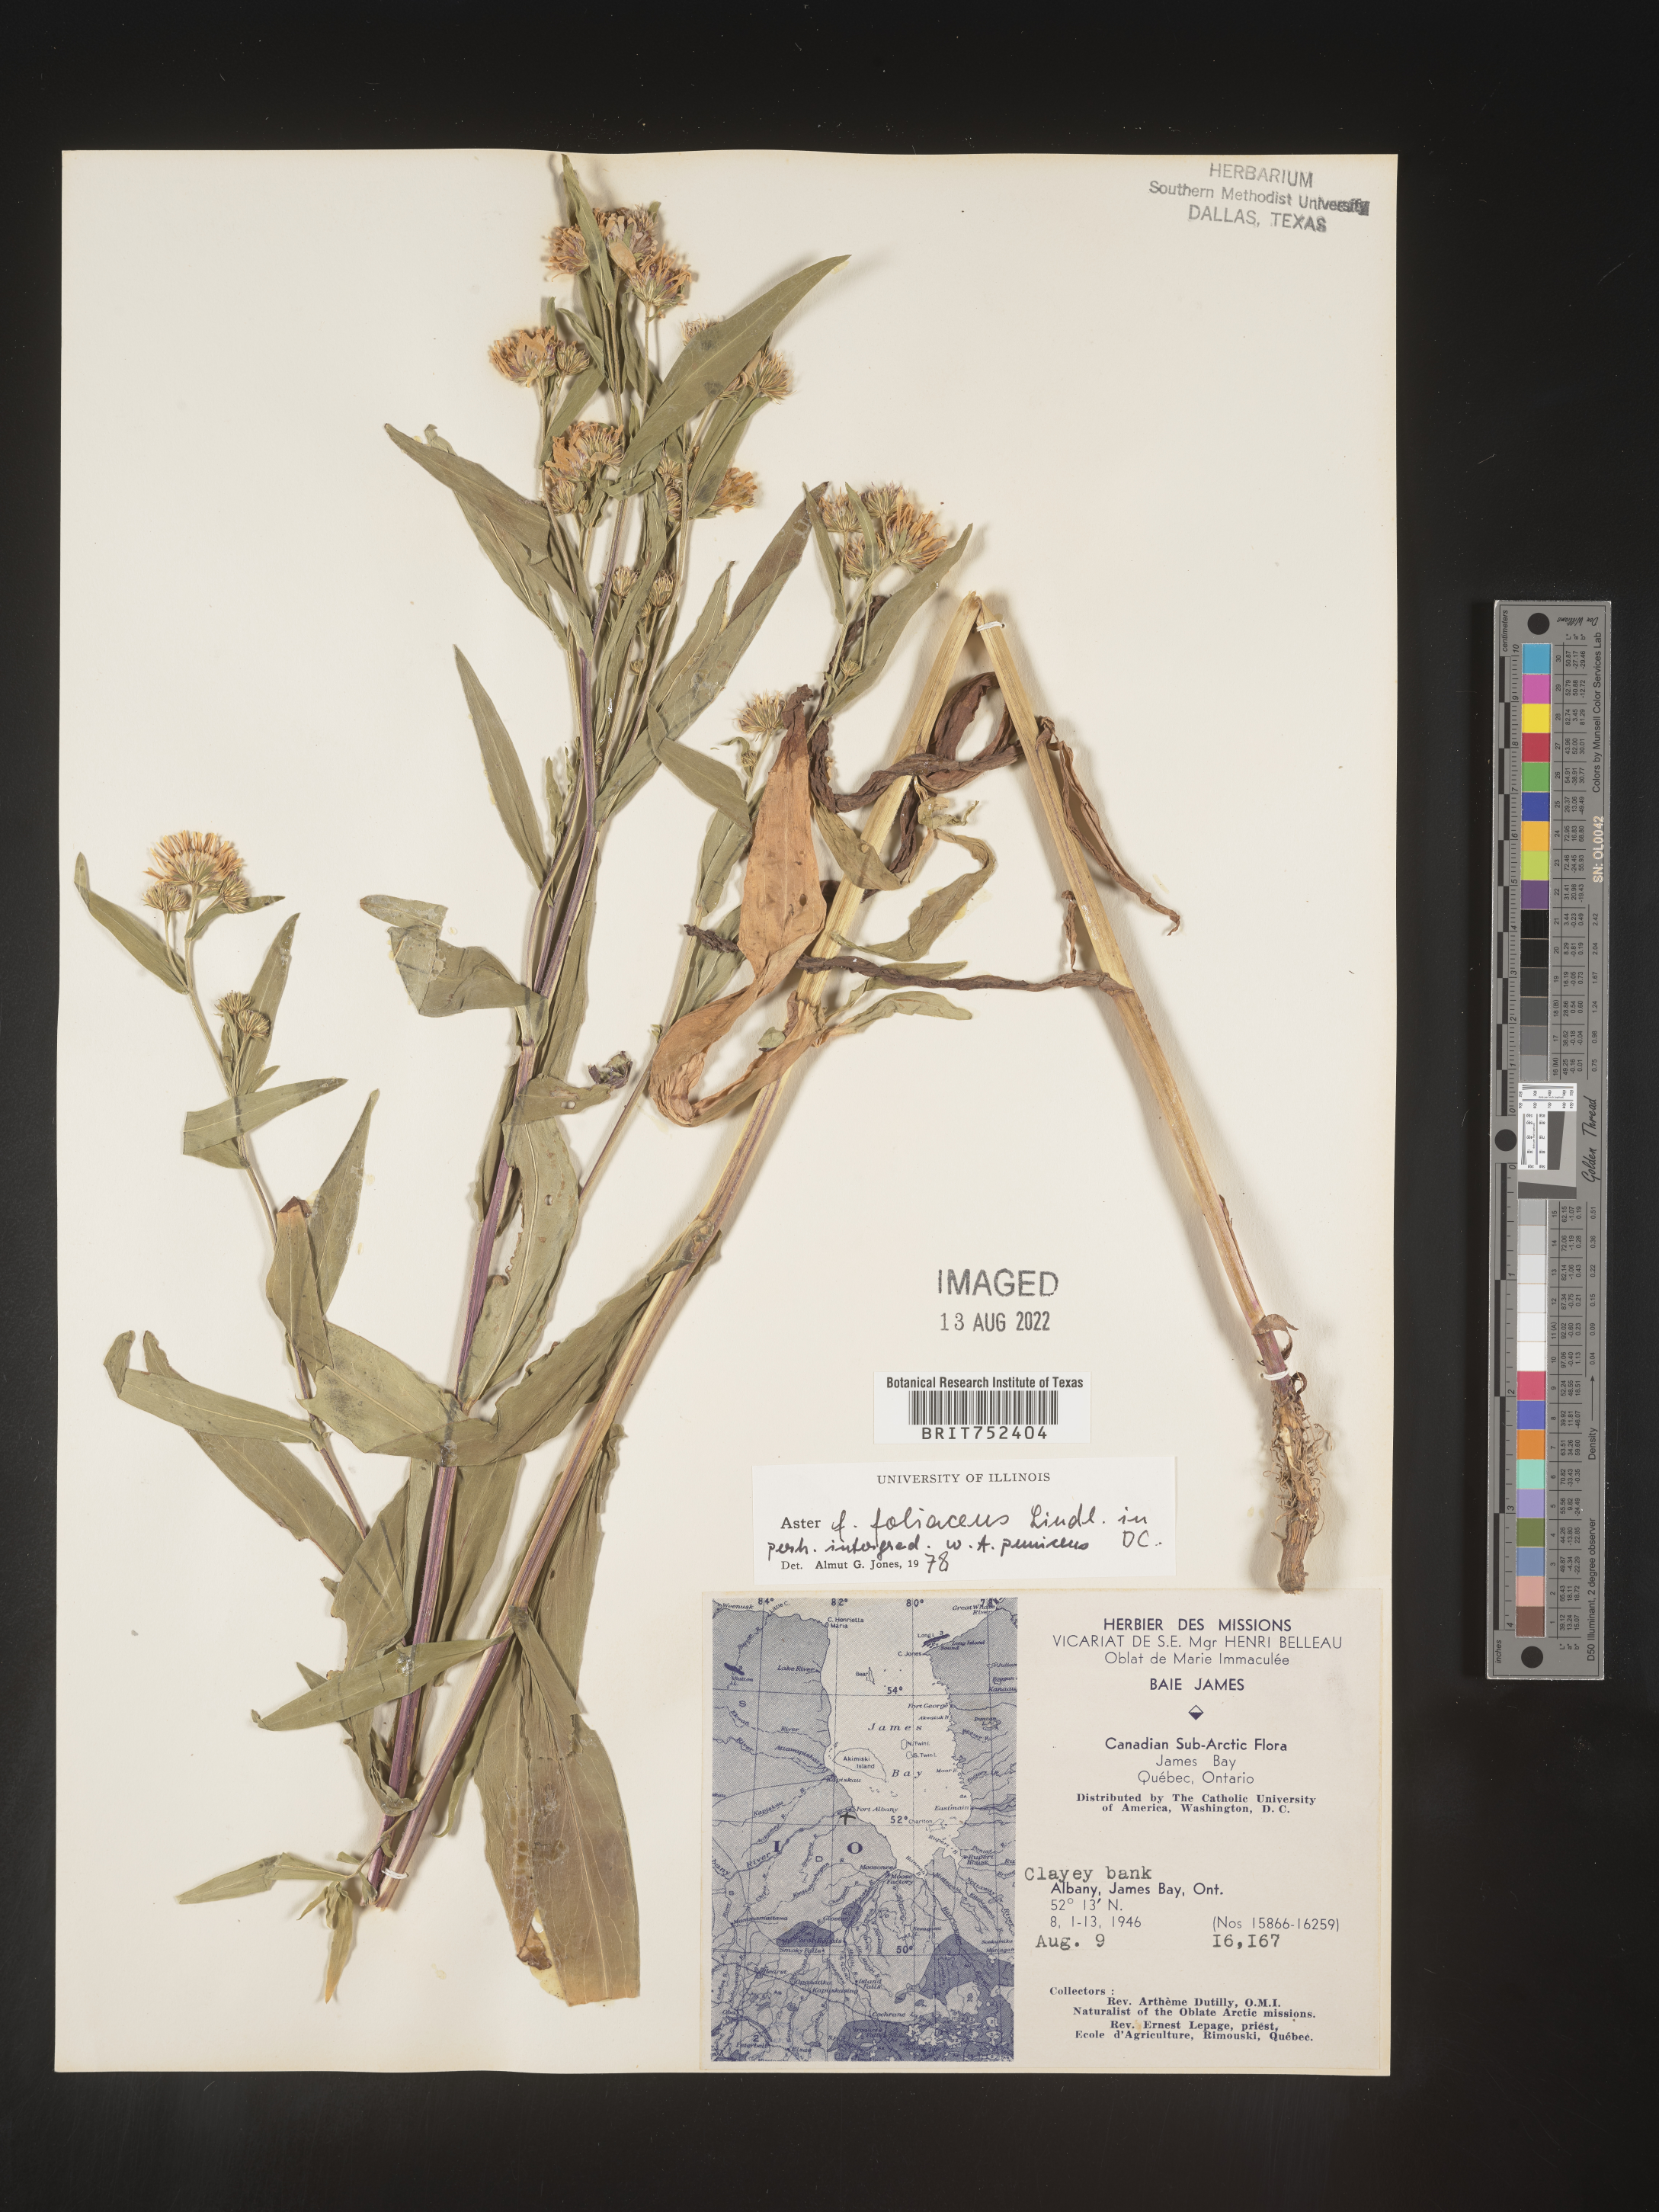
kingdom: Plantae
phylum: Tracheophyta
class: Magnoliopsida
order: Asterales
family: Asteraceae
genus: Symphyotrichum
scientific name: Symphyotrichum foliaceum
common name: Leafy aster
